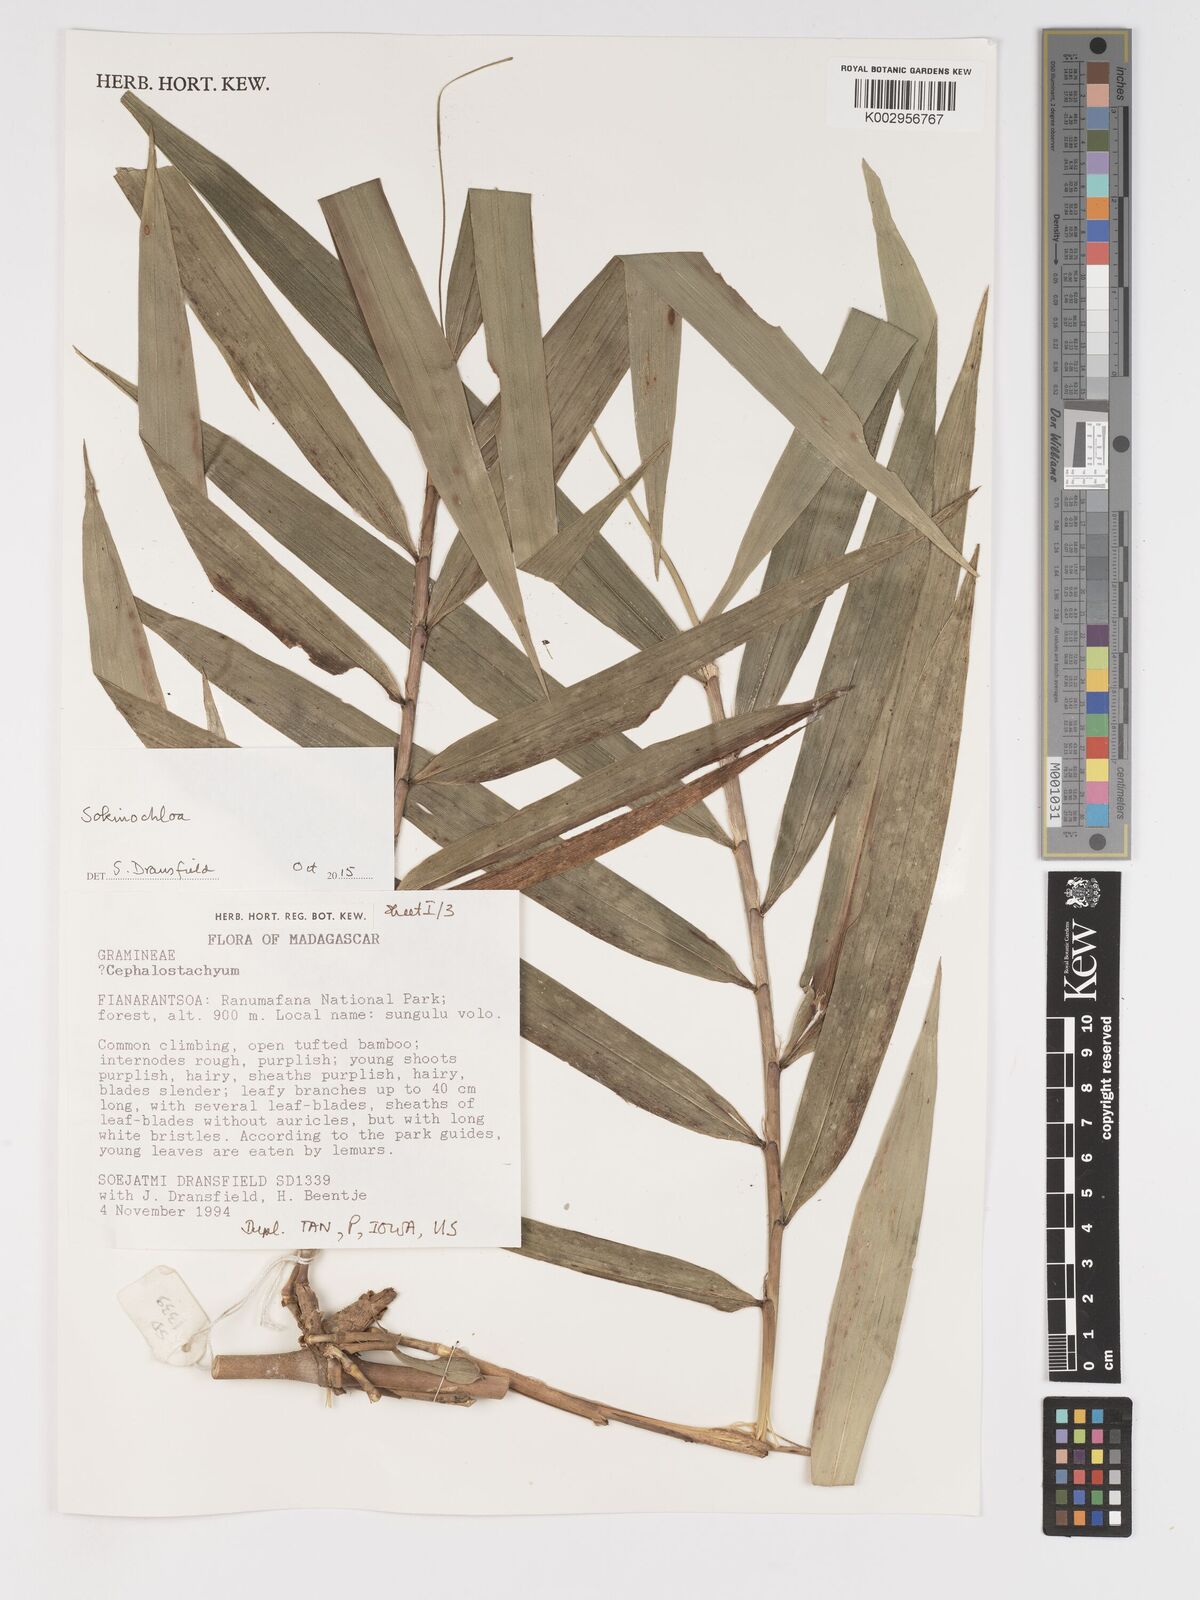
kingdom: Plantae
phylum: Tracheophyta
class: Liliopsida
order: Poales
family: Poaceae
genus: Sokinochloa
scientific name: Sokinochloa
